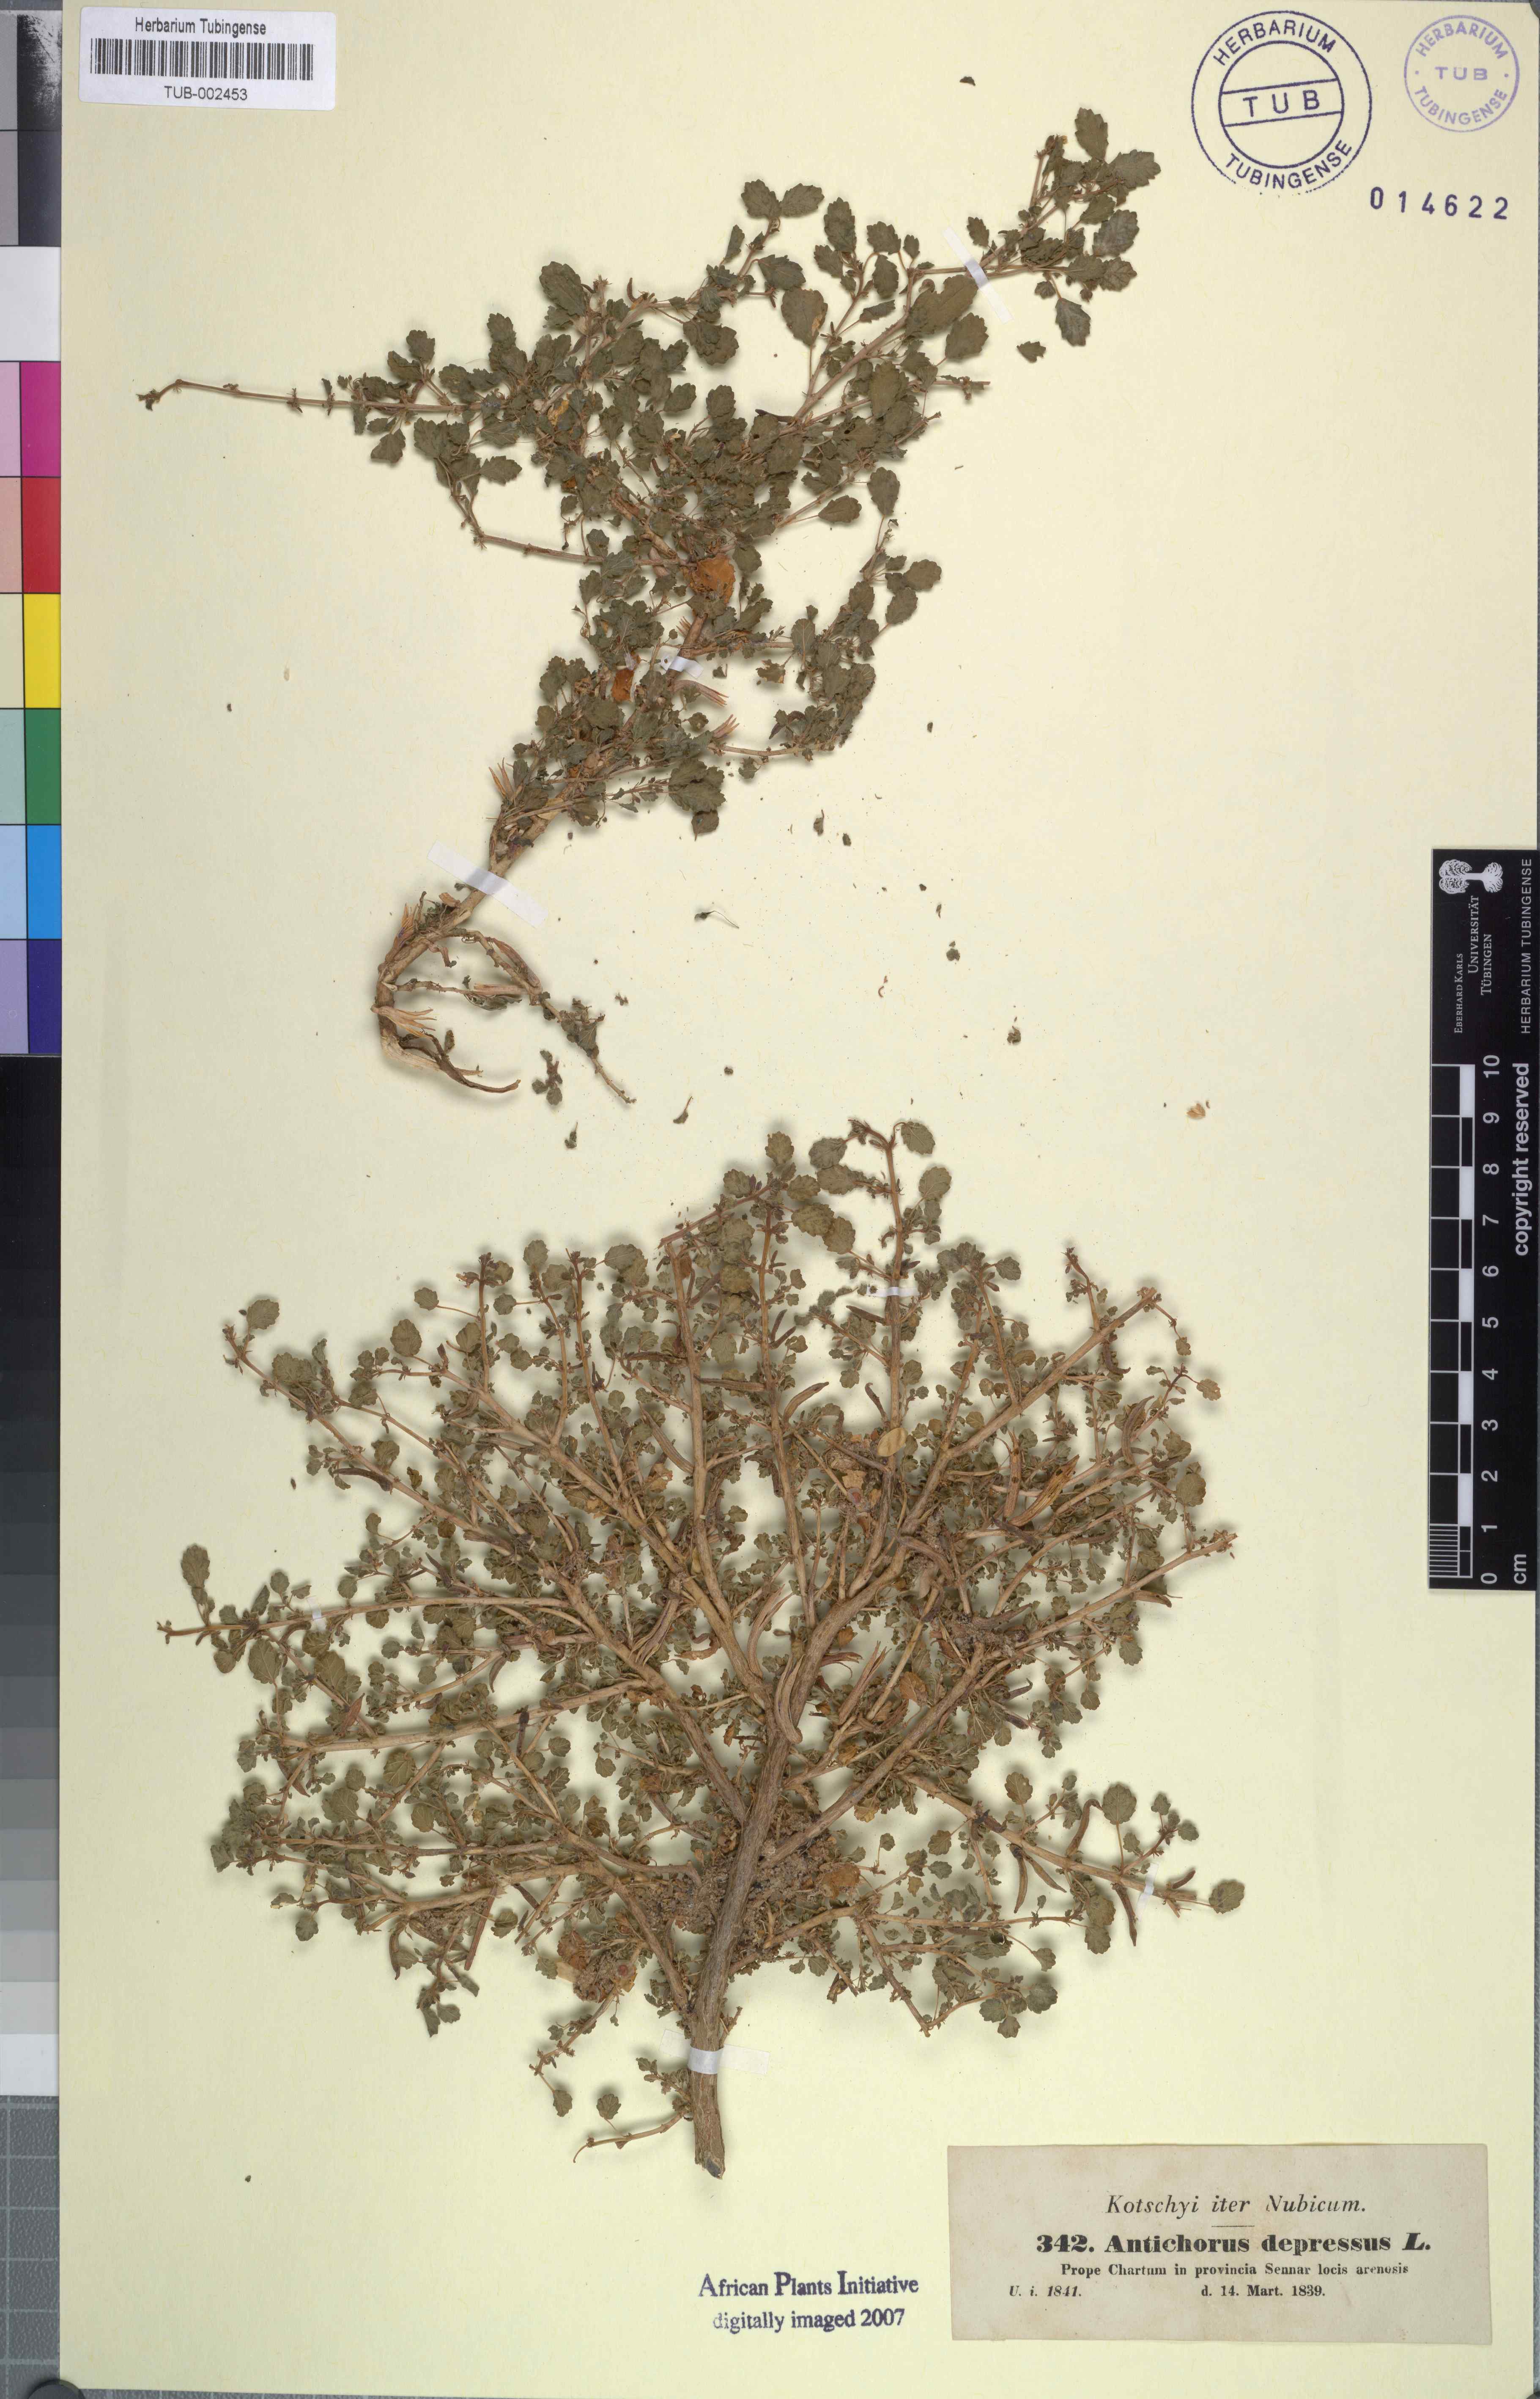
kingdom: Plantae
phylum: Tracheophyta
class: Magnoliopsida
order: Malvales
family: Malvaceae
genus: Corchorus
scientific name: Corchorus depressus
